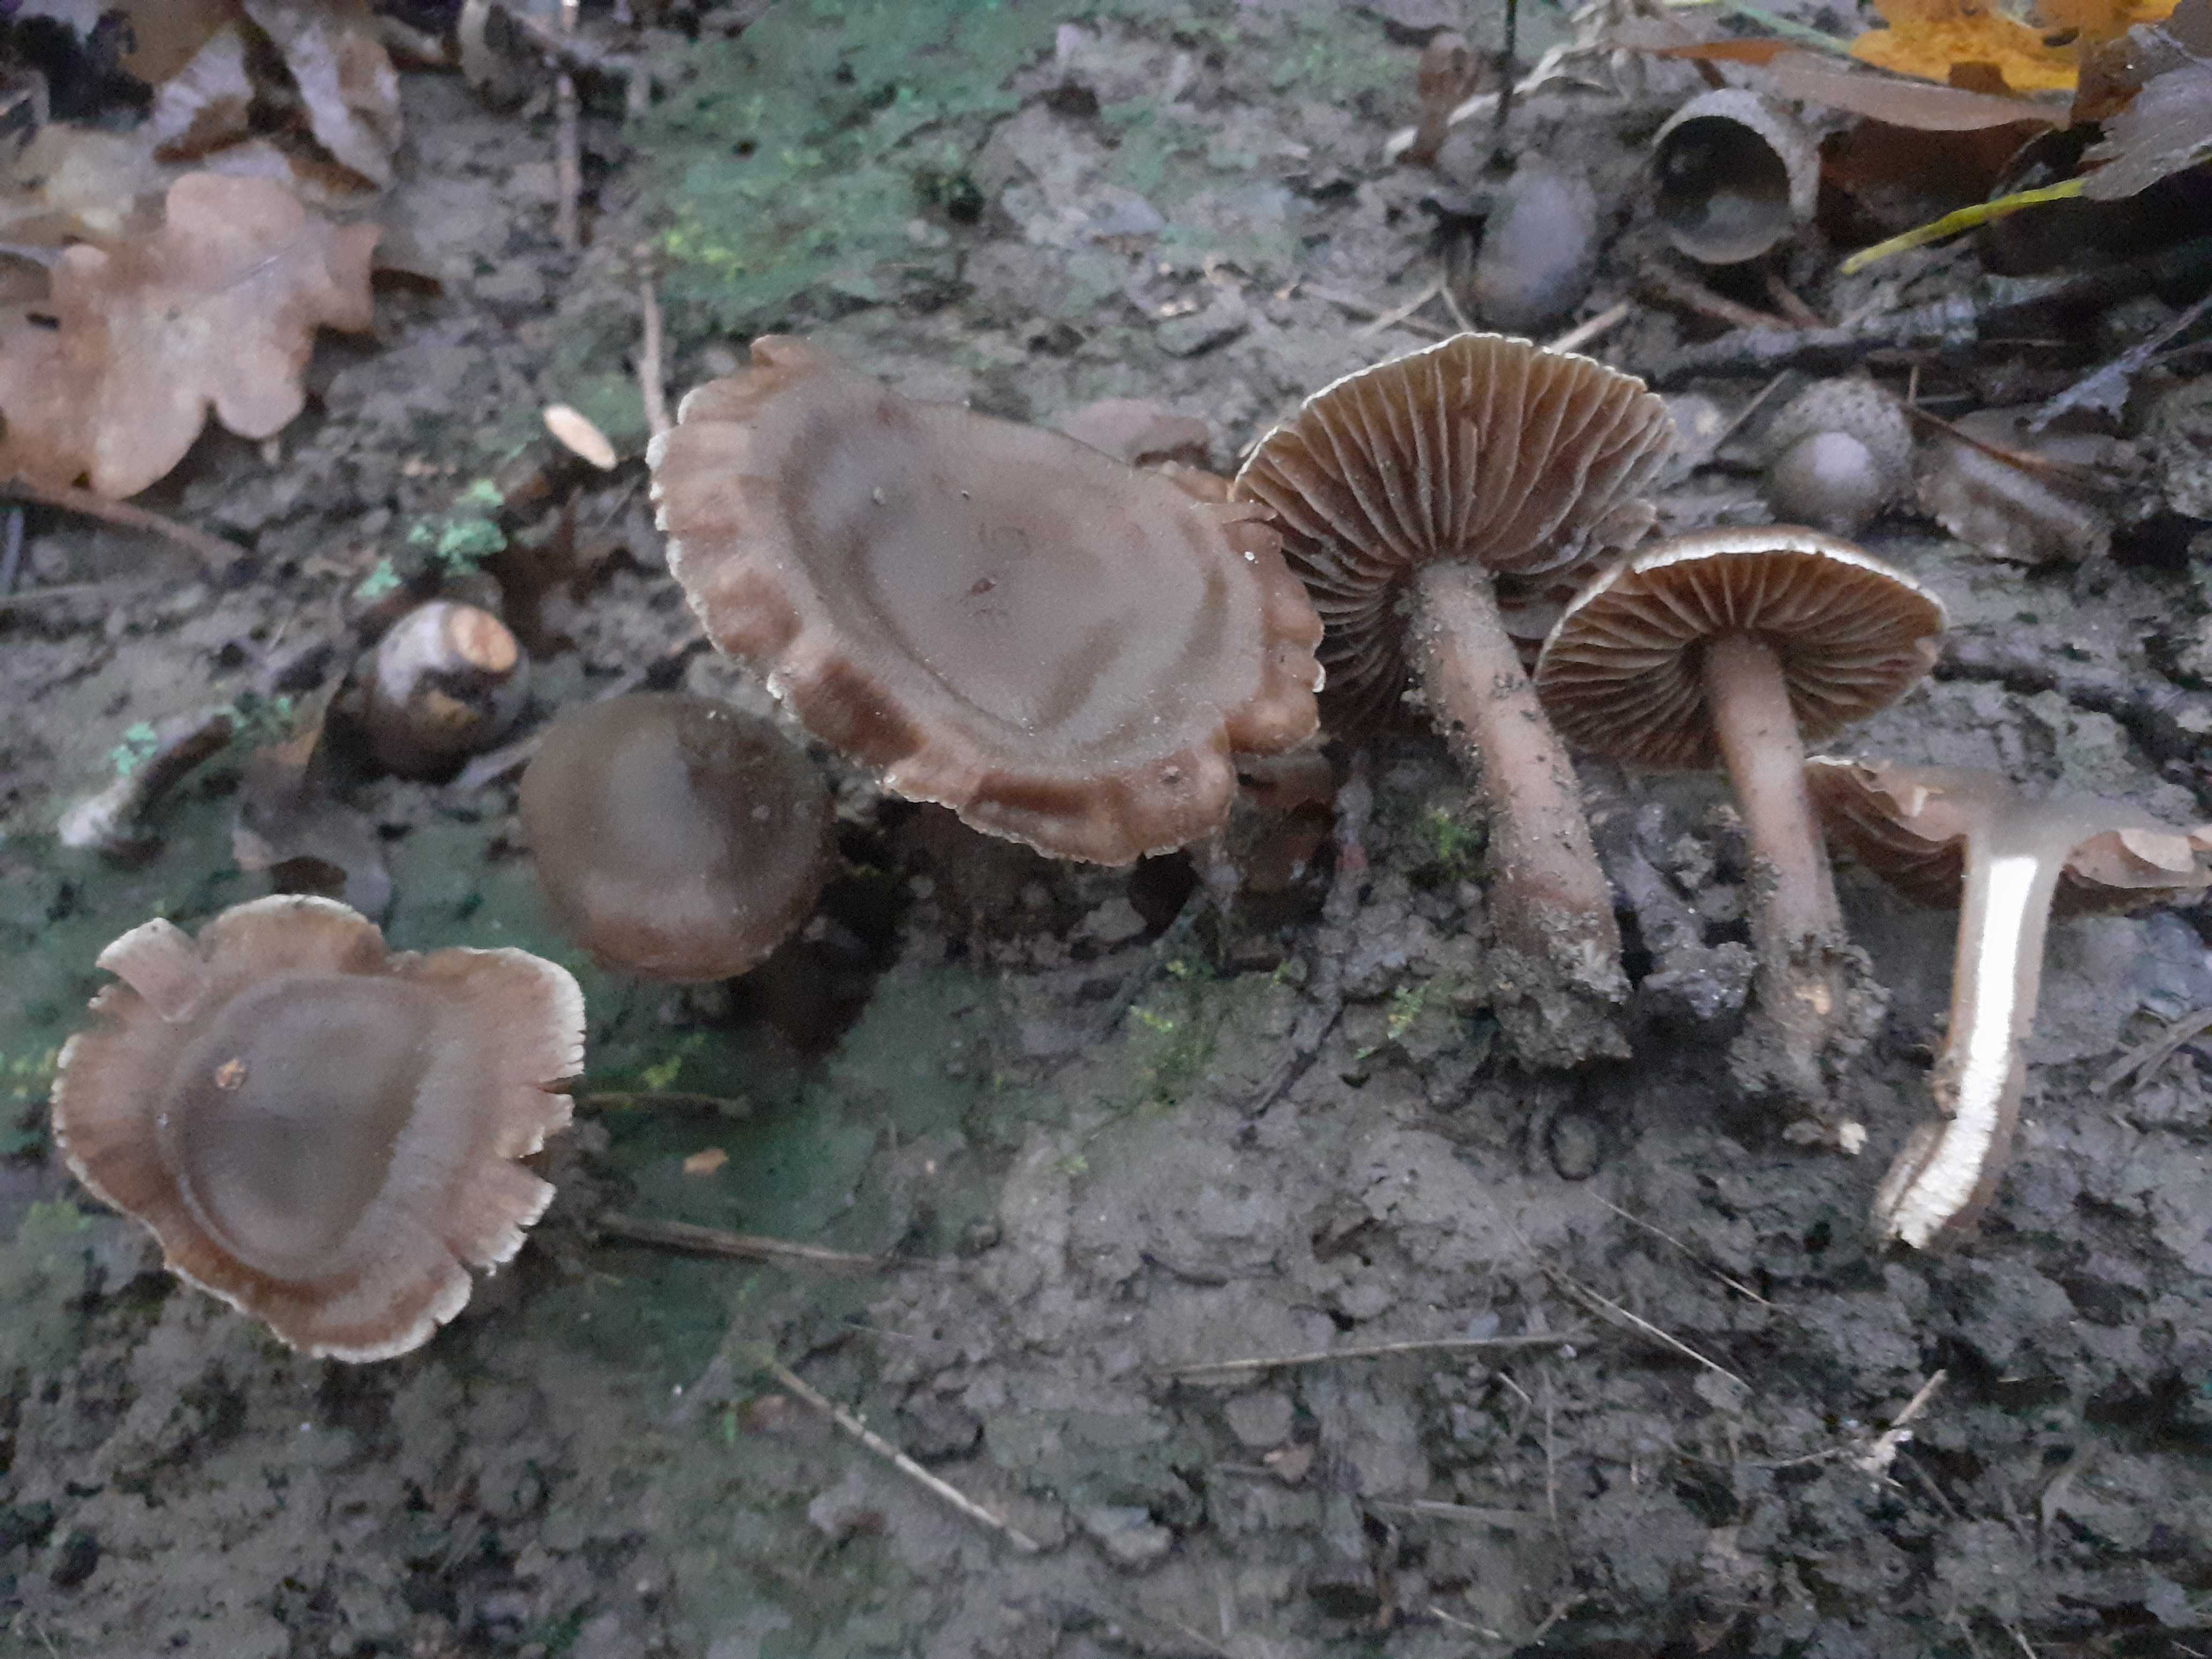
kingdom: Fungi
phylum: Basidiomycota
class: Agaricomycetes
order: Agaricales
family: Cortinariaceae
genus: Cortinarius
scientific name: Cortinarius
